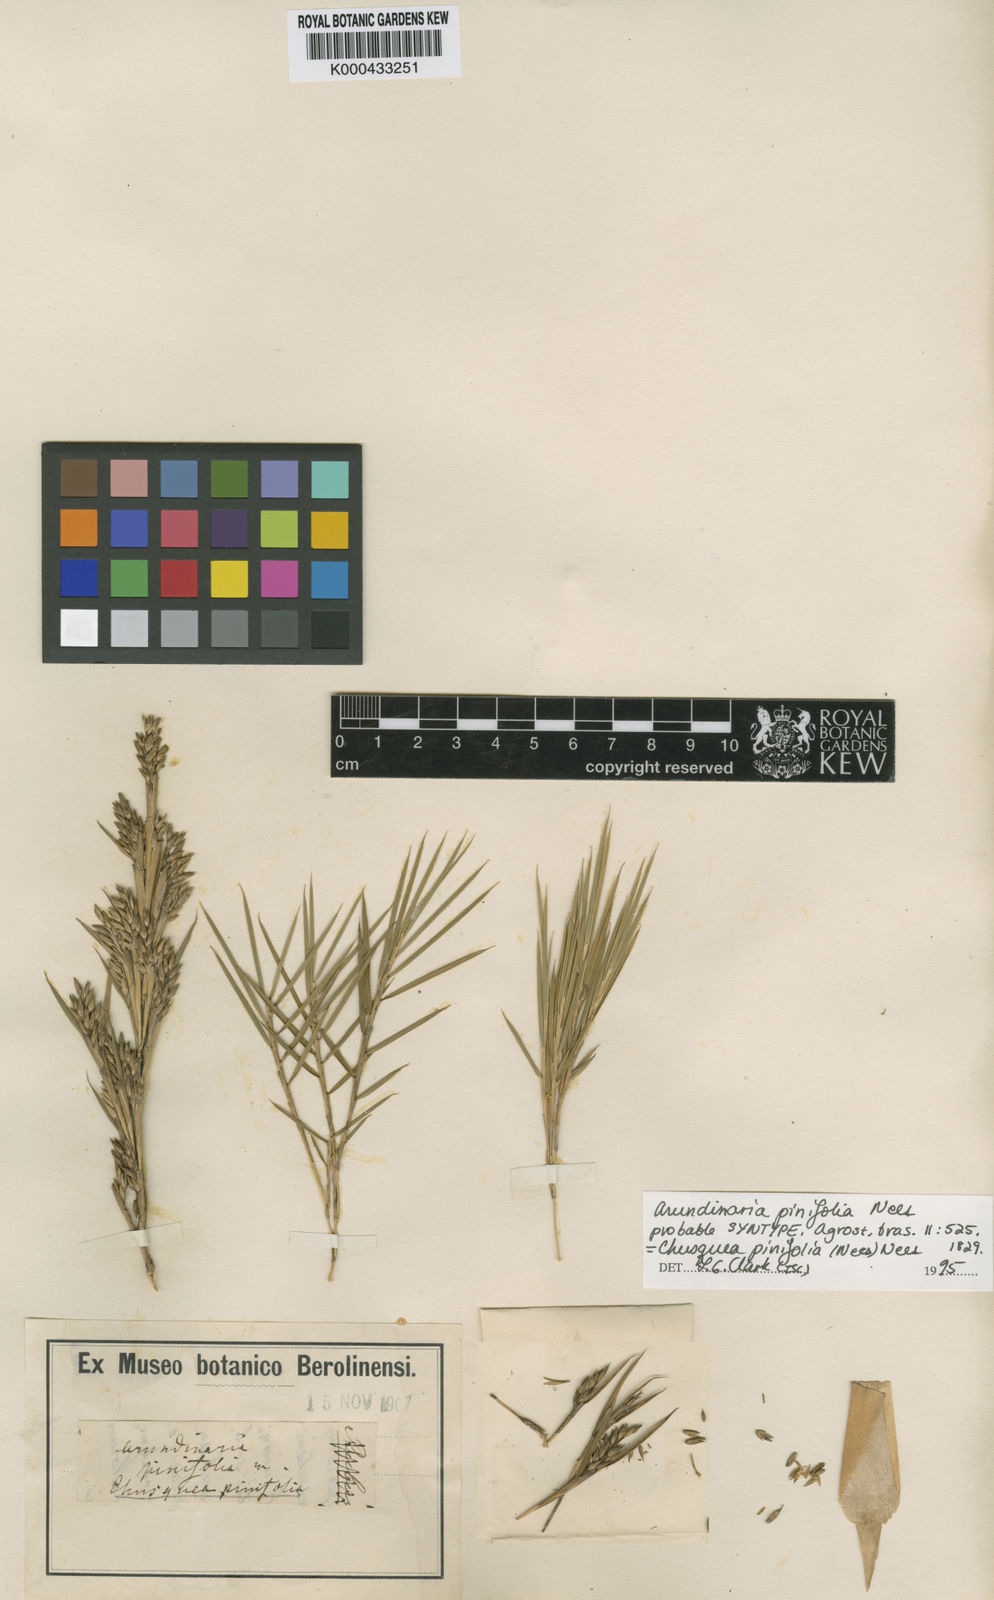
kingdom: Plantae
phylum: Tracheophyta
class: Liliopsida
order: Poales
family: Poaceae
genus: Chusquea
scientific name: Chusquea pinifolia
